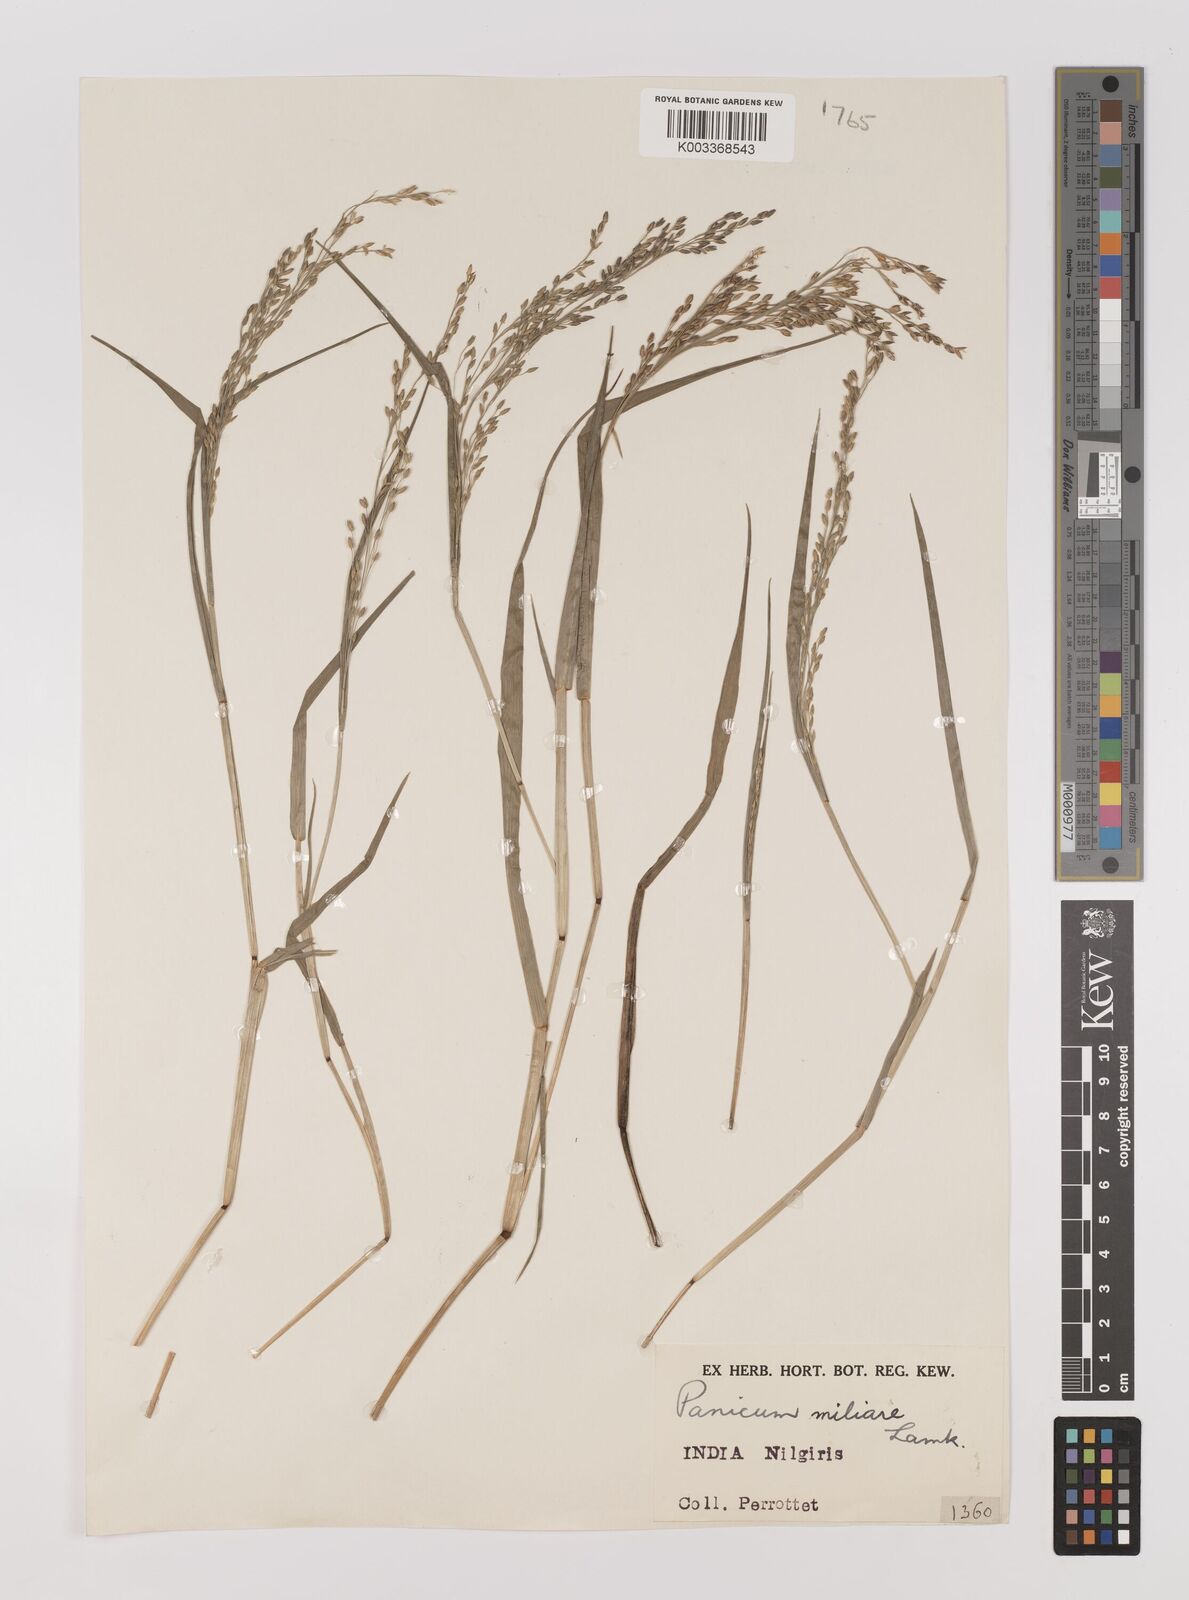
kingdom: Plantae
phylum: Tracheophyta
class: Liliopsida
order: Poales
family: Poaceae
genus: Panicum
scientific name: Panicum sumatrense
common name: Little millet
